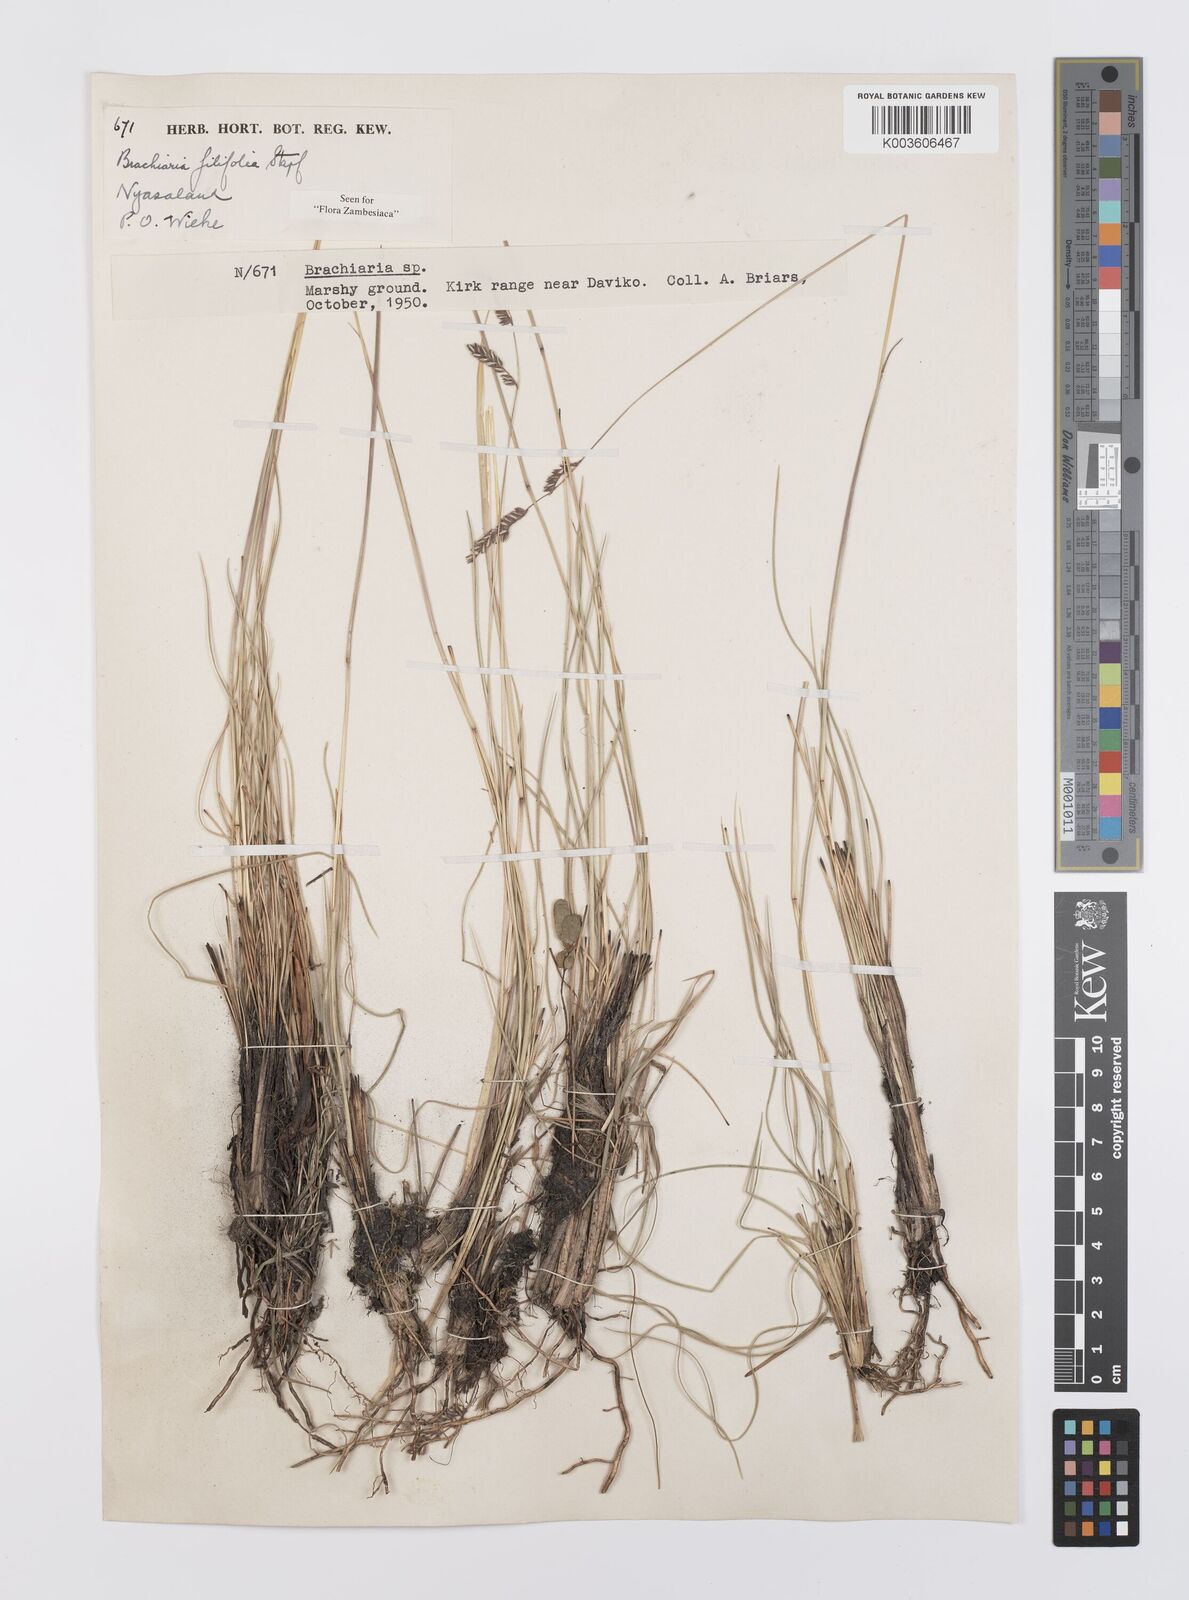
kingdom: Plantae
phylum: Tracheophyta
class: Liliopsida
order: Poales
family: Poaceae
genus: Urochloa
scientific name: Urochloa subulifolia
